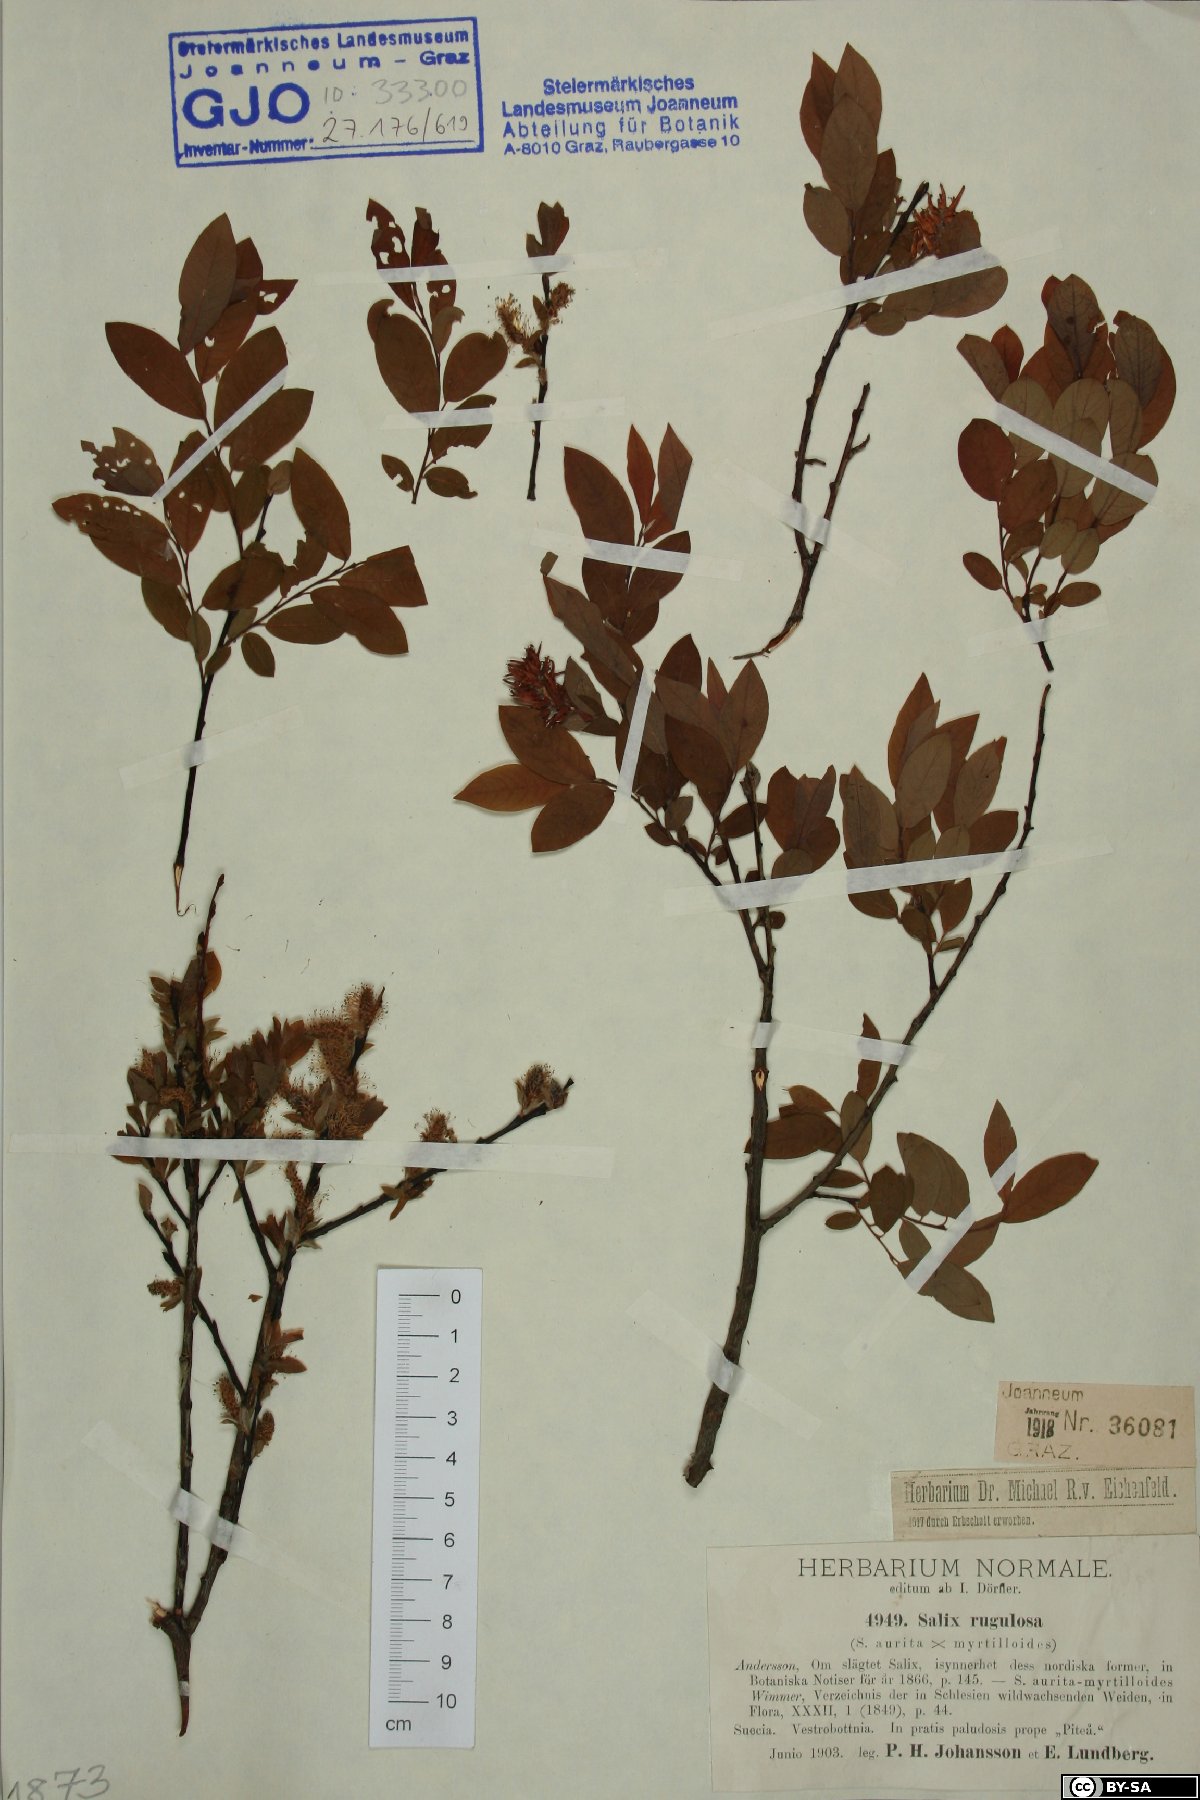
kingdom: Plantae
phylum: Tracheophyta
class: Magnoliopsida
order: Malpighiales
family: Salicaceae
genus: Salix
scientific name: Salix rugulosa
